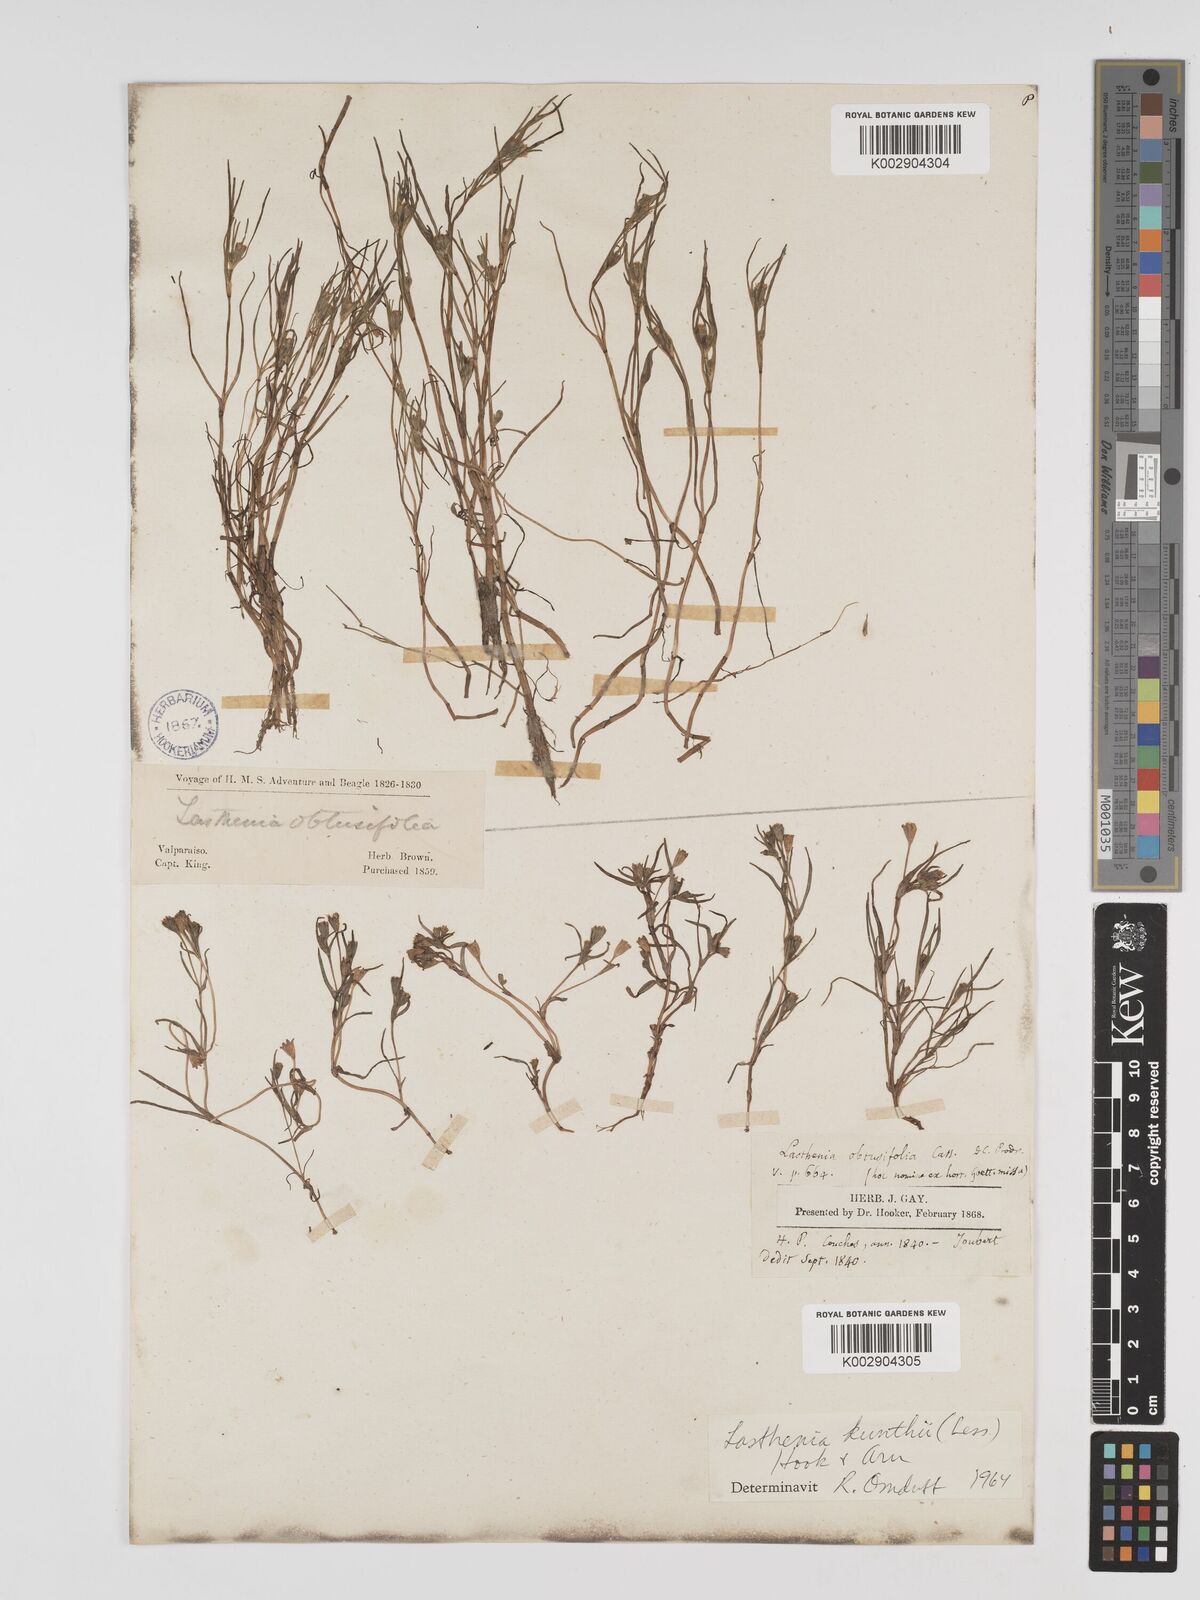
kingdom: Plantae
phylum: Tracheophyta
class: Magnoliopsida
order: Asterales
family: Asteraceae
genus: Lasthenia
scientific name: Lasthenia kunthii
